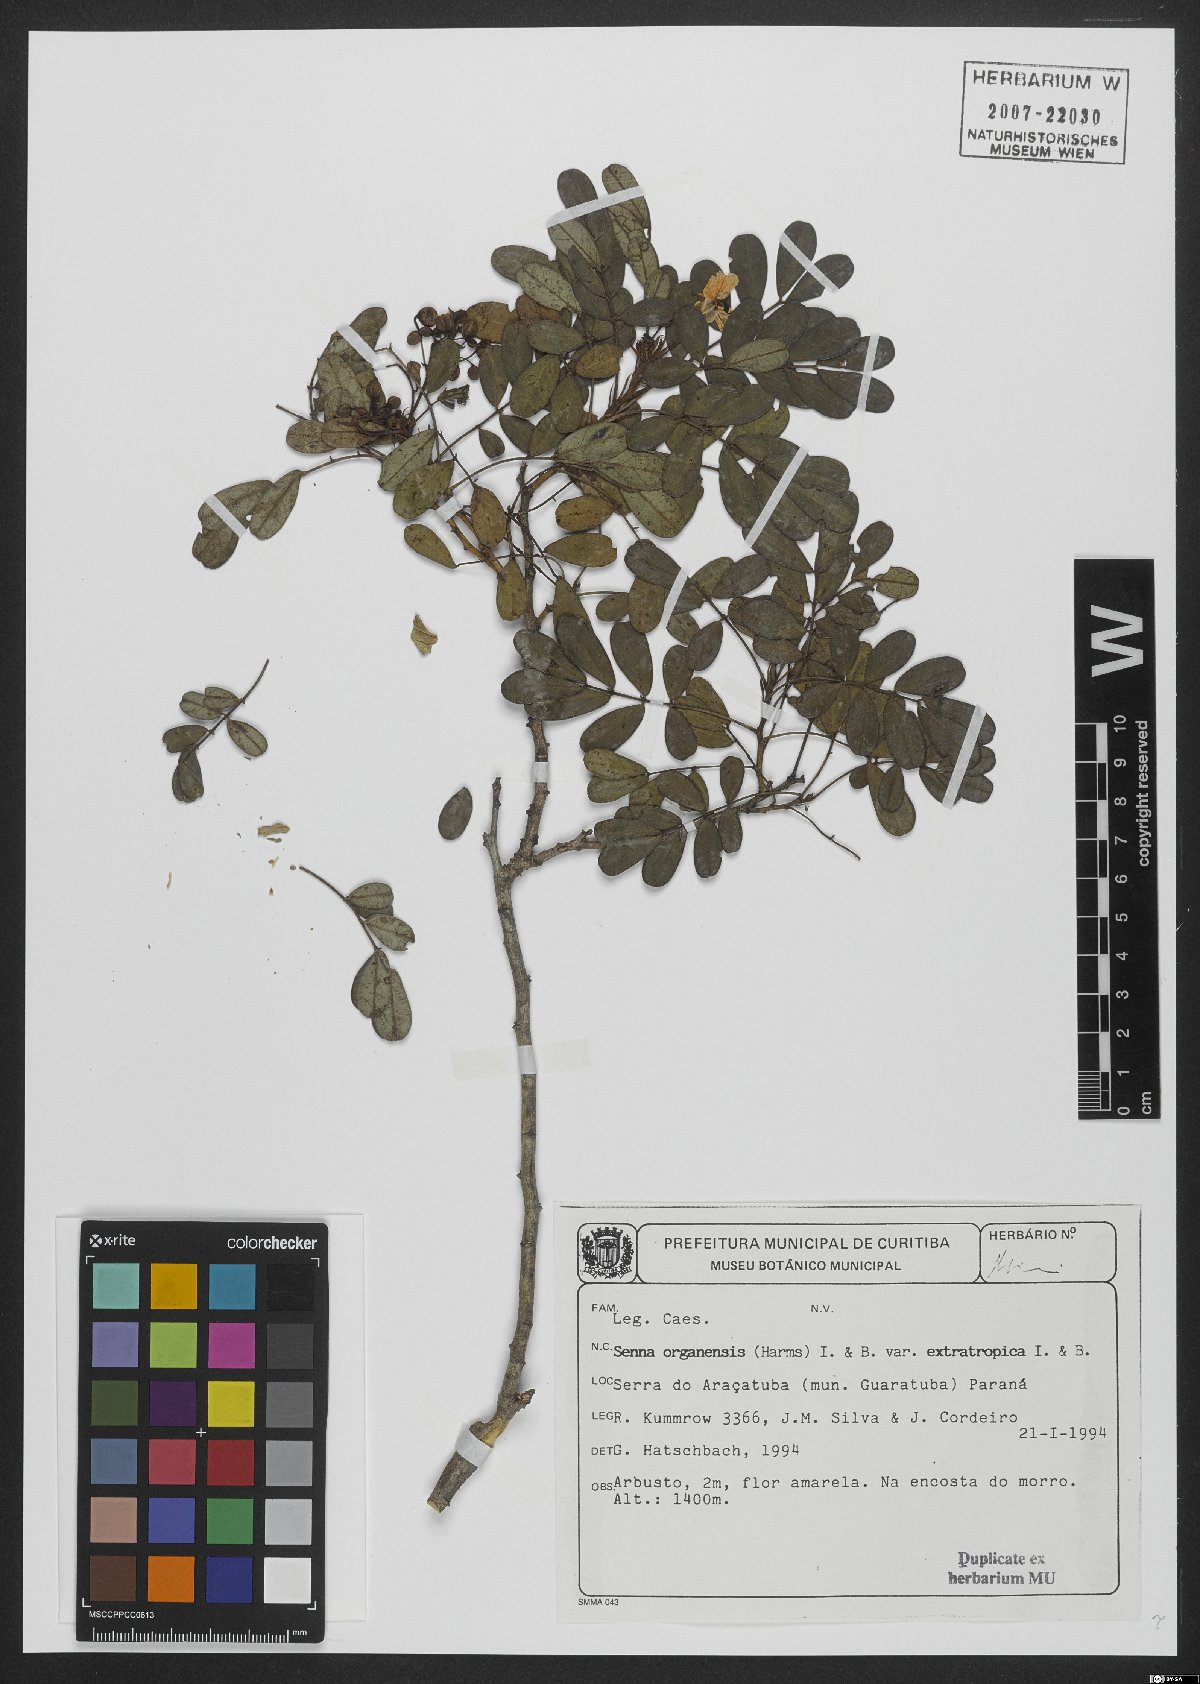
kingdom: Plantae
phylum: Tracheophyta
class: Magnoliopsida
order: Fabales
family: Fabaceae
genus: Senna
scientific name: Senna organensis
